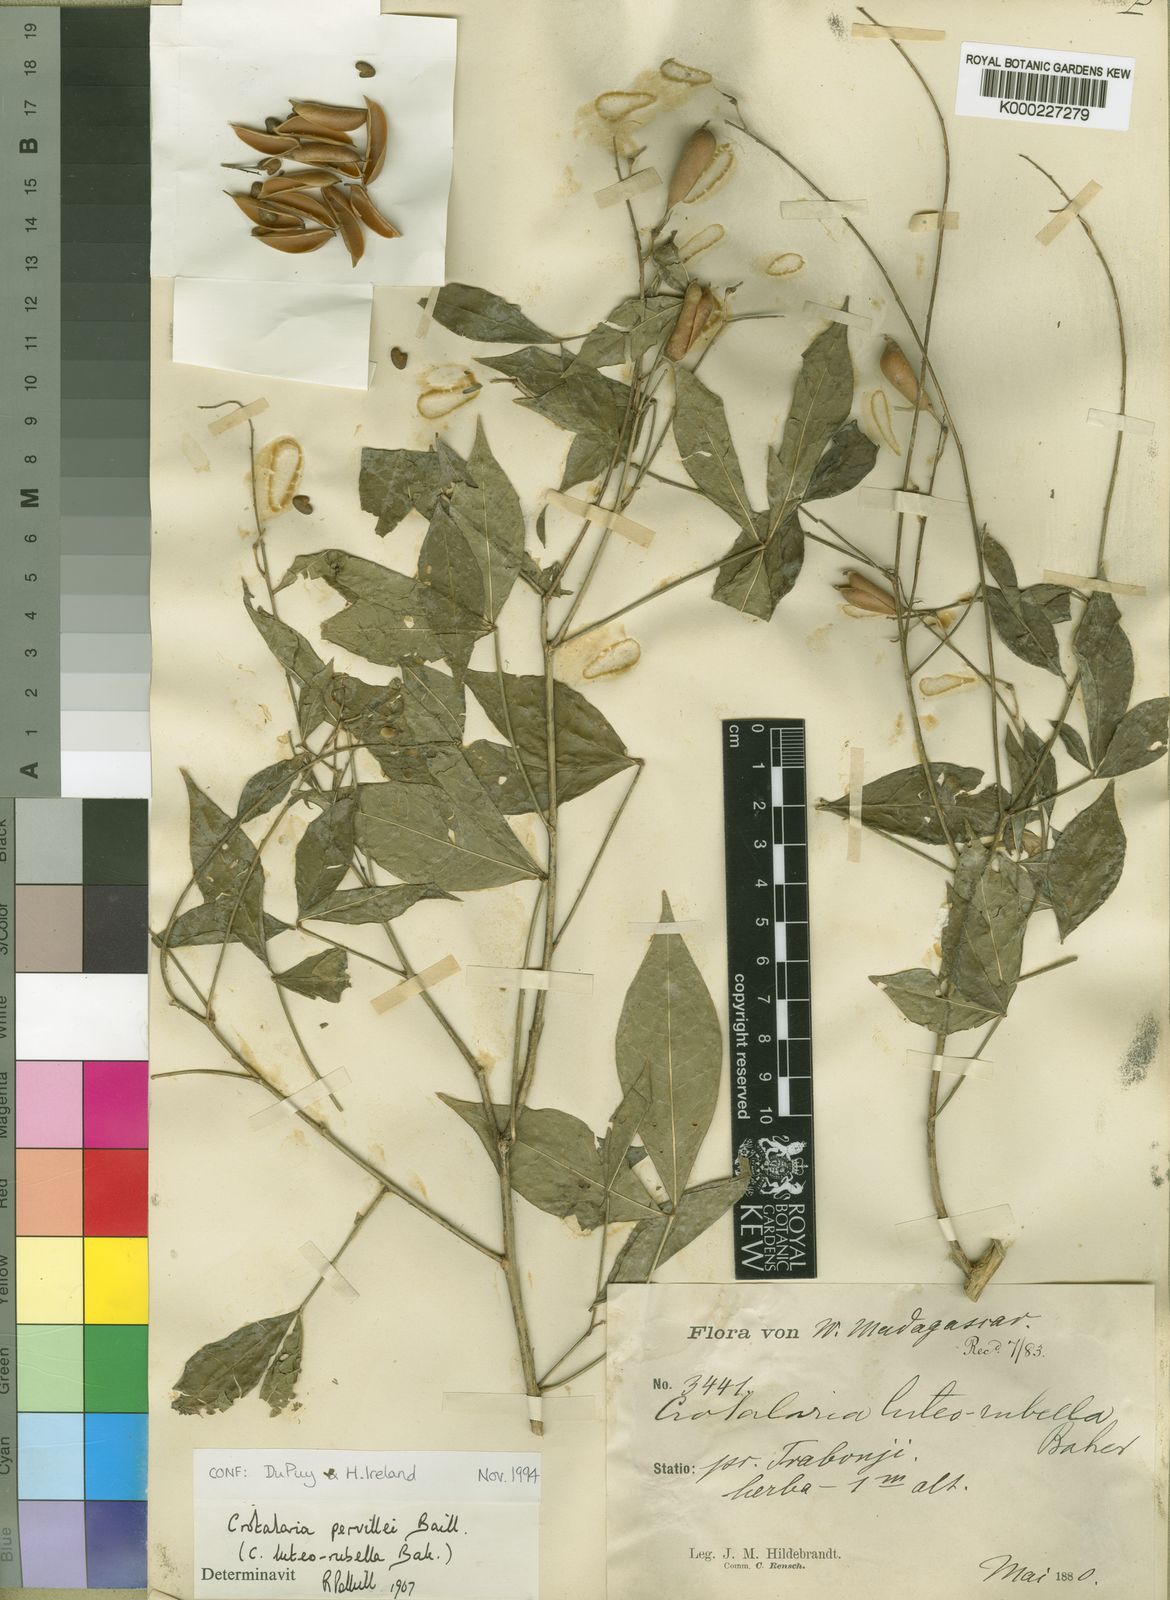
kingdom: Plantae
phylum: Tracheophyta
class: Magnoliopsida
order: Fabales
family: Fabaceae
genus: Crotalaria
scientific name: Crotalaria pervillei
